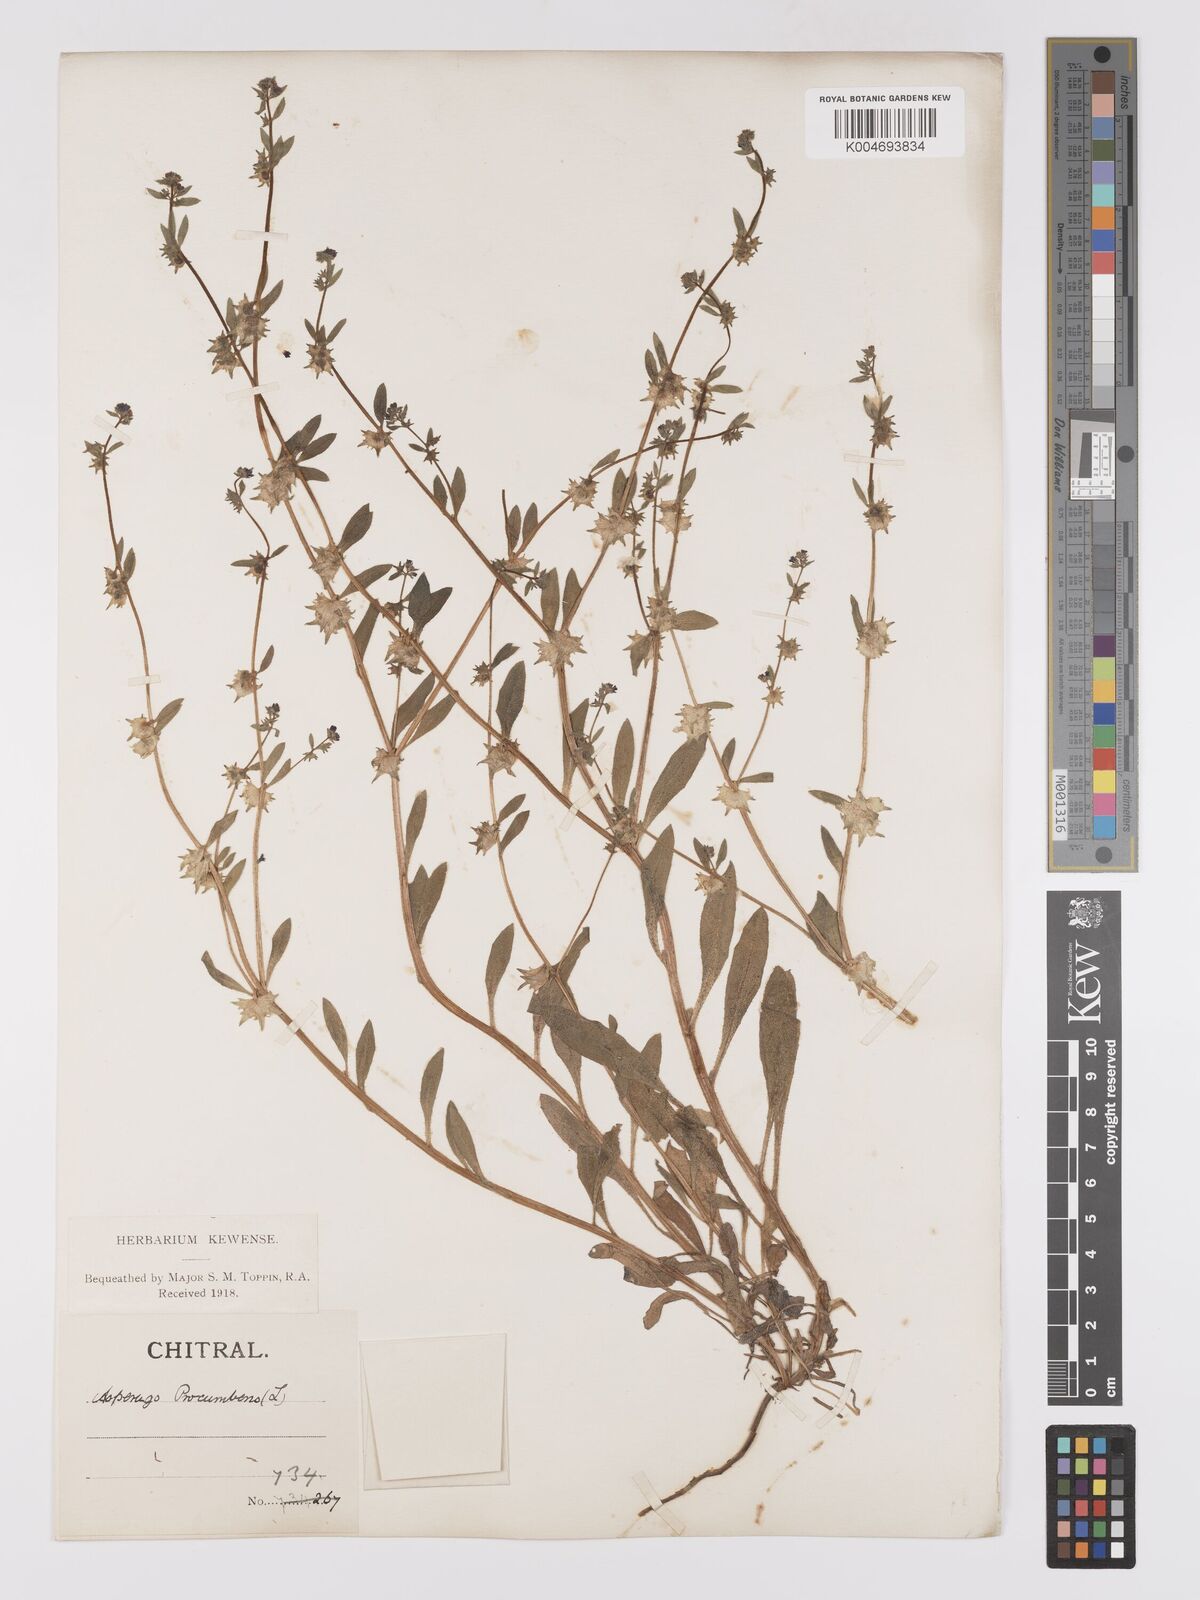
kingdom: Plantae
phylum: Tracheophyta
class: Magnoliopsida
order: Boraginales
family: Boraginaceae
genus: Asperugo
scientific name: Asperugo procumbens
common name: Madwort
